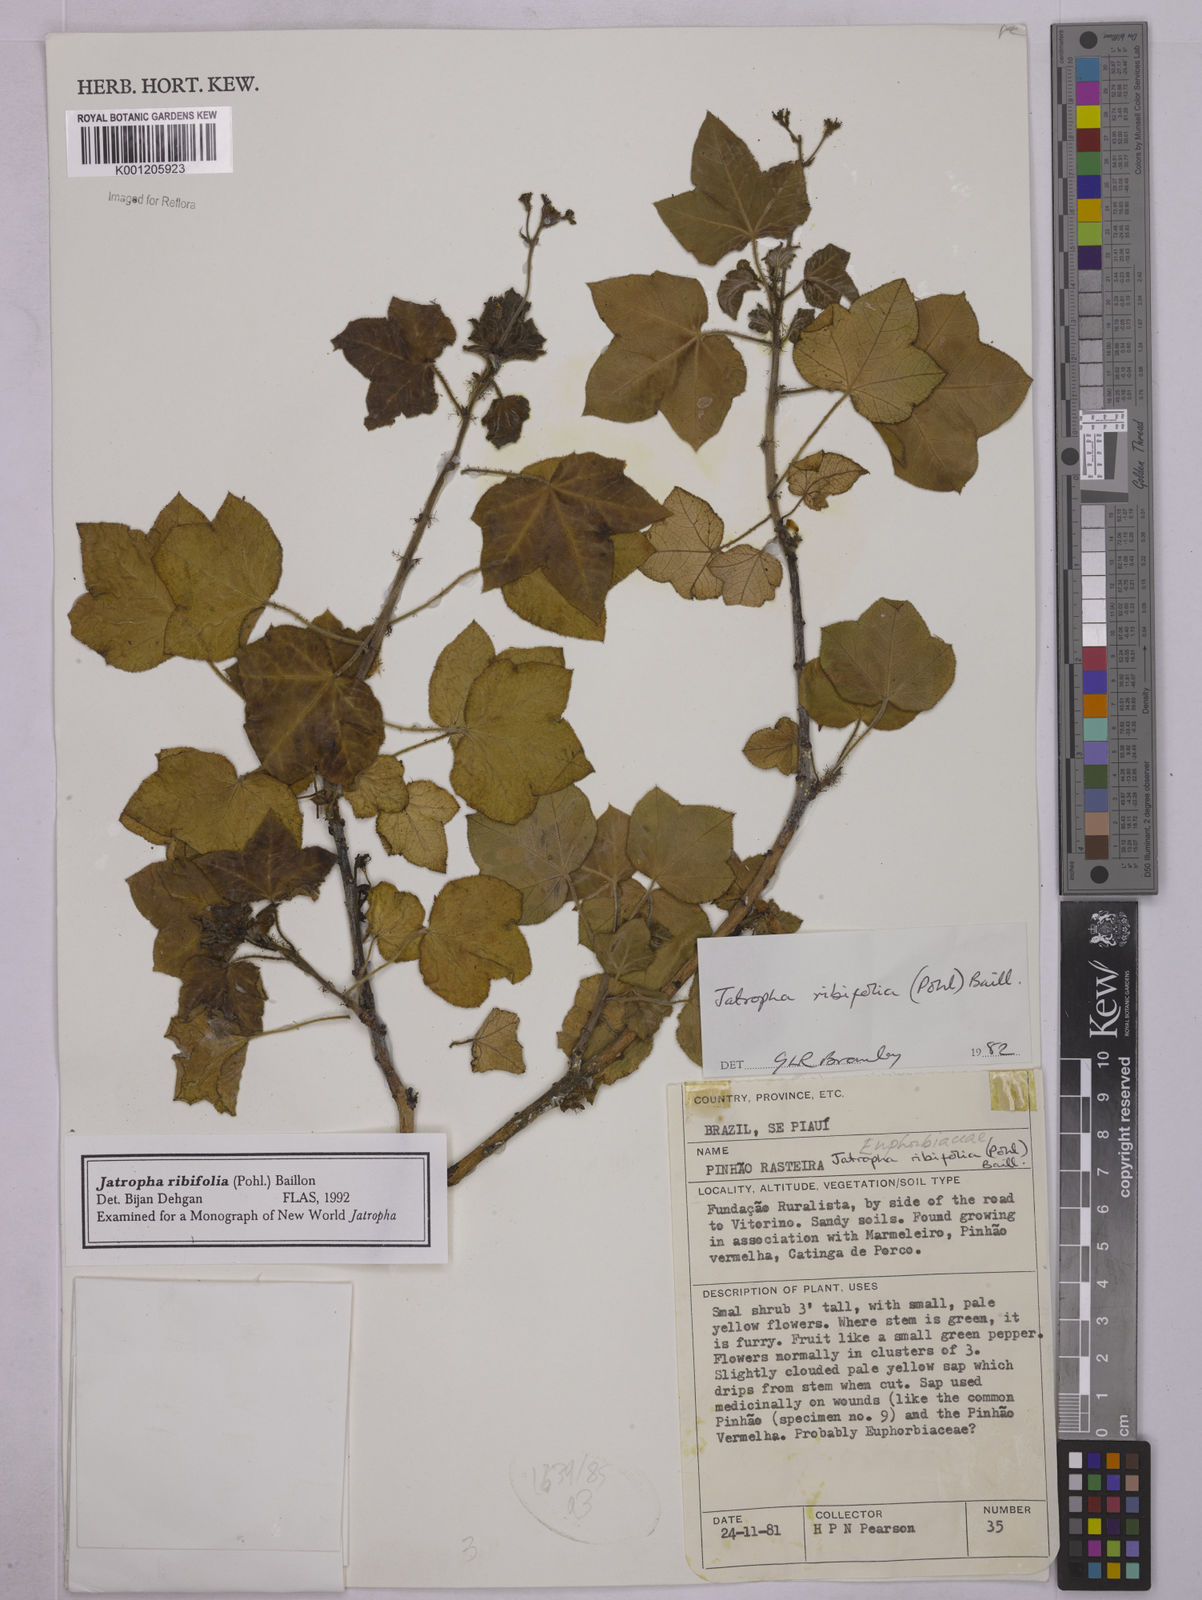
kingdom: Plantae
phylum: Tracheophyta
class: Magnoliopsida
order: Malpighiales
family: Euphorbiaceae
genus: Jatropha
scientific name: Jatropha ribifolia
